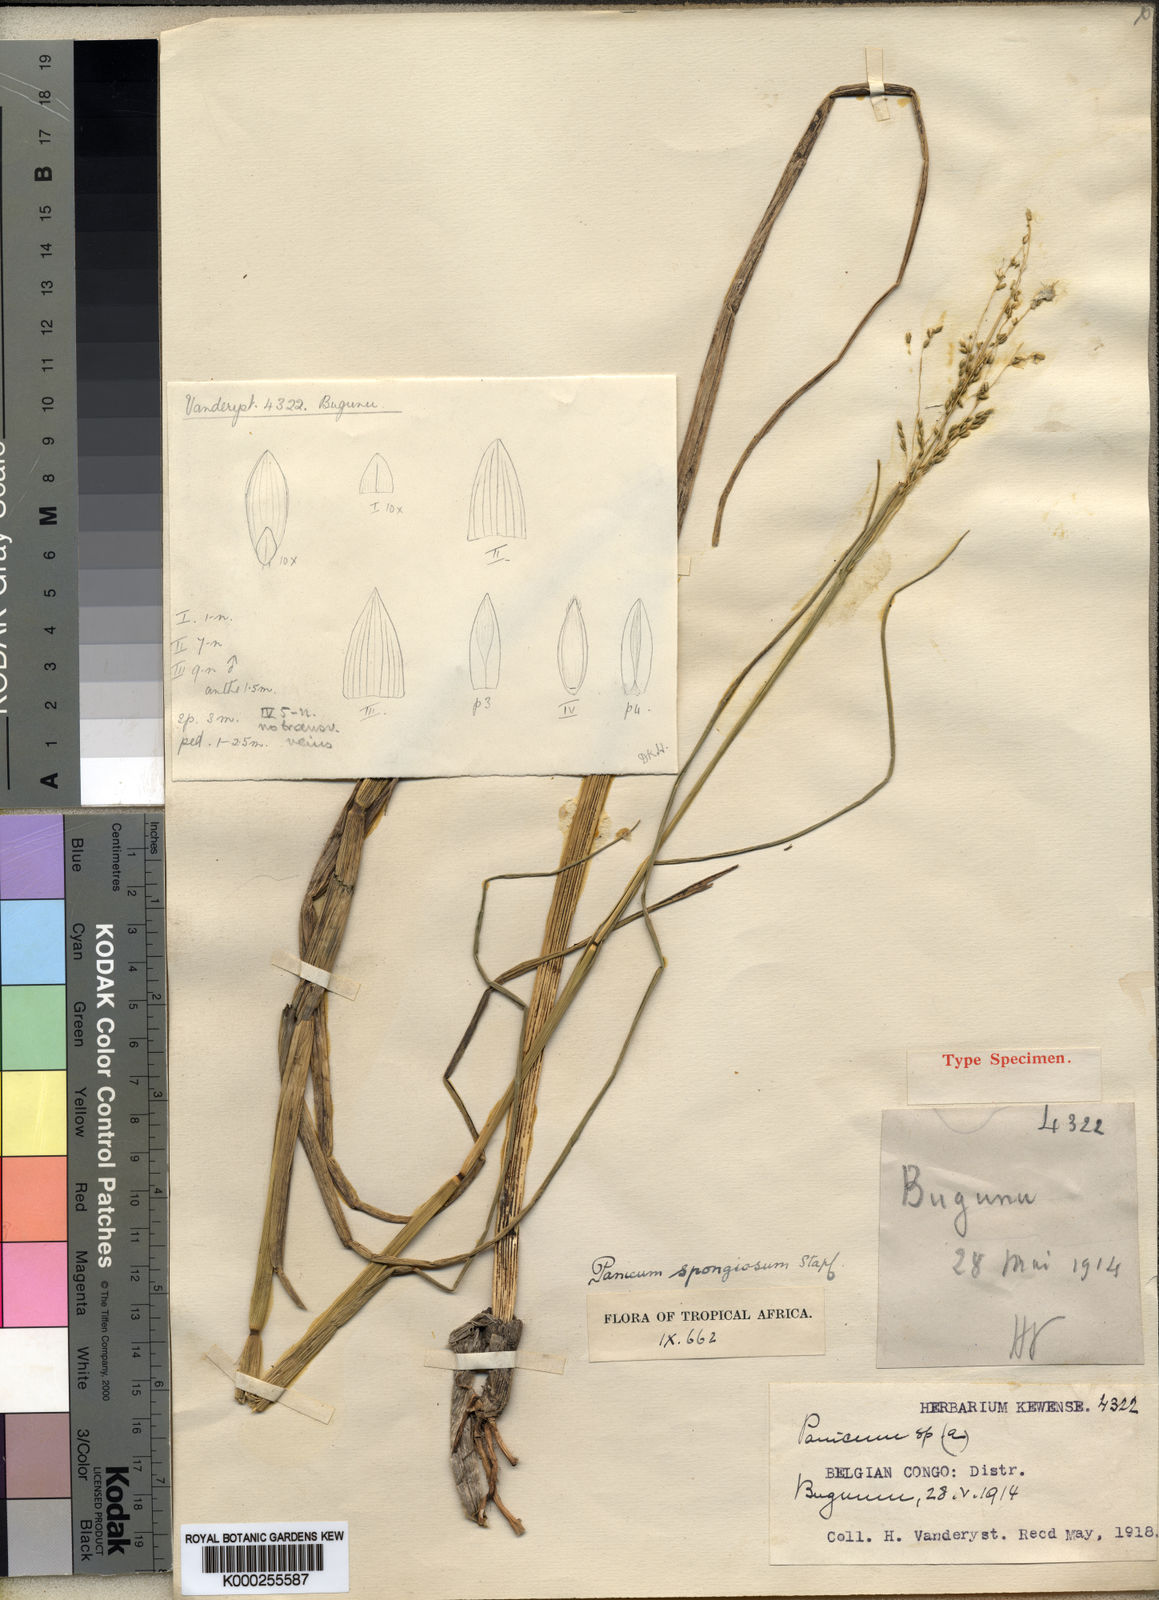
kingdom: Plantae
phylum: Tracheophyta
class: Liliopsida
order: Poales
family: Poaceae
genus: Panicum
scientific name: Panicum spongiosum
